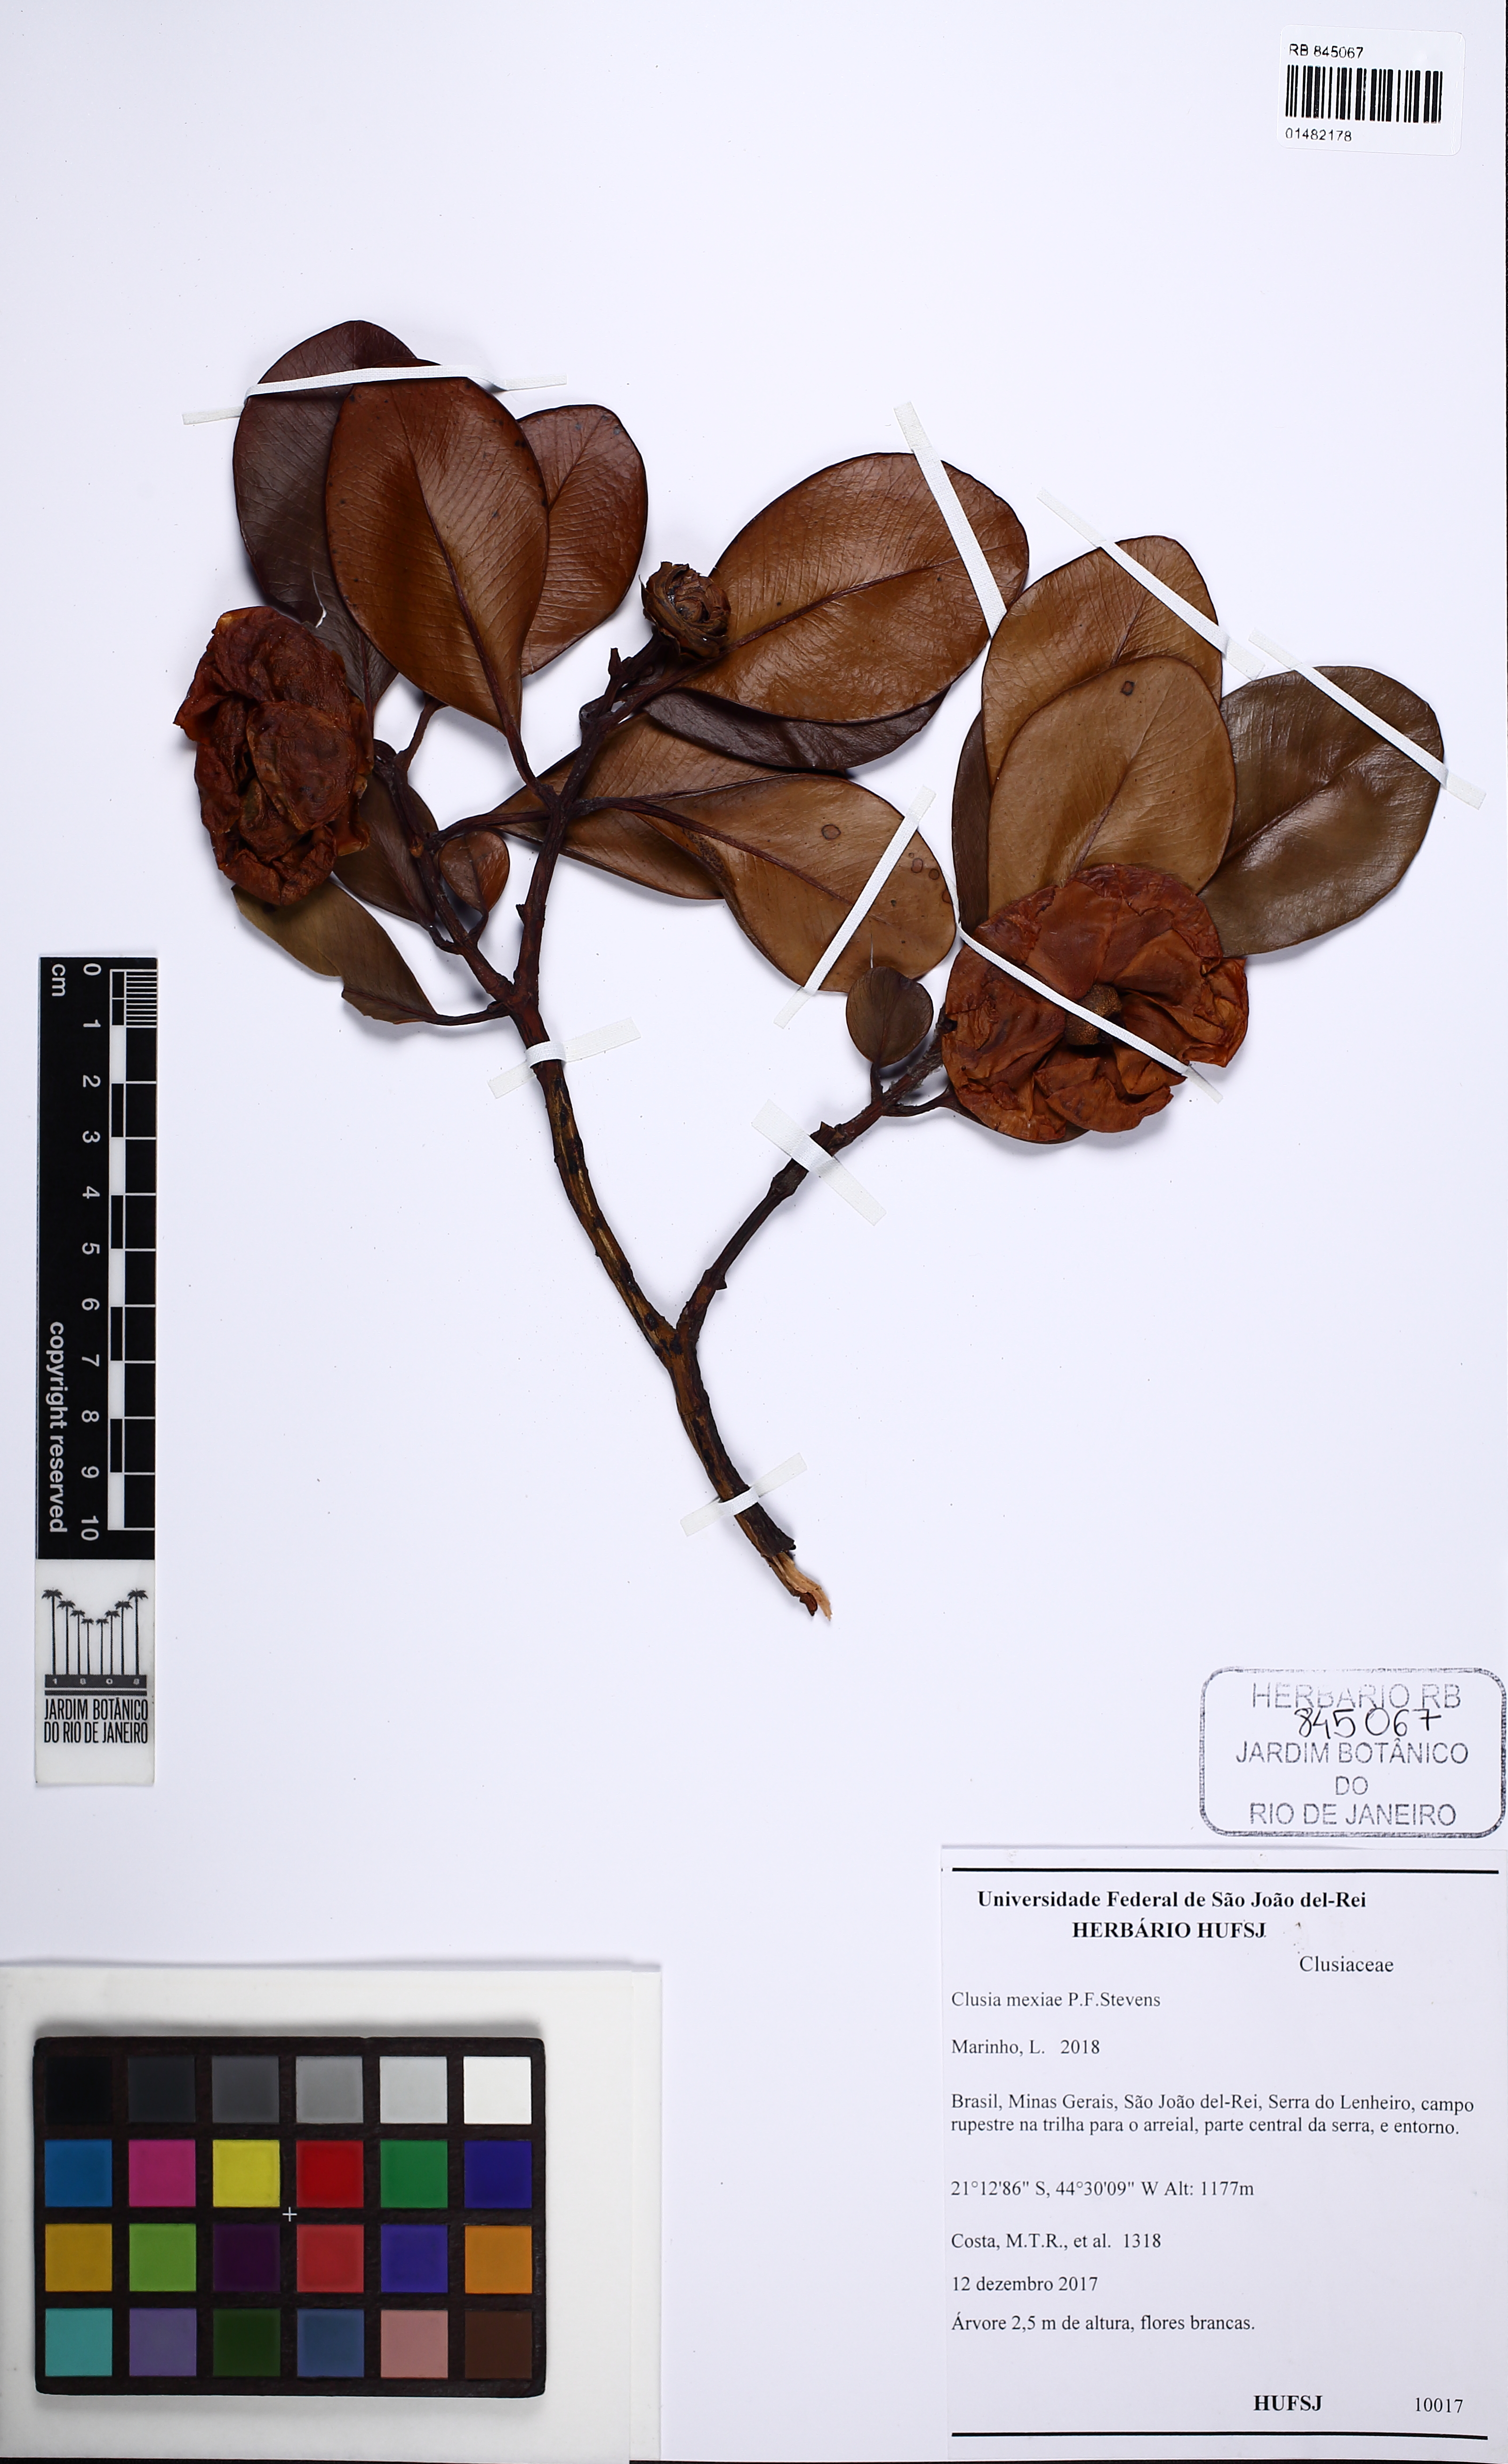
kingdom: Plantae
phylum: Tracheophyta
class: Magnoliopsida
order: Malpighiales
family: Clusiaceae
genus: Clusia
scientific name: Clusia mexiae
